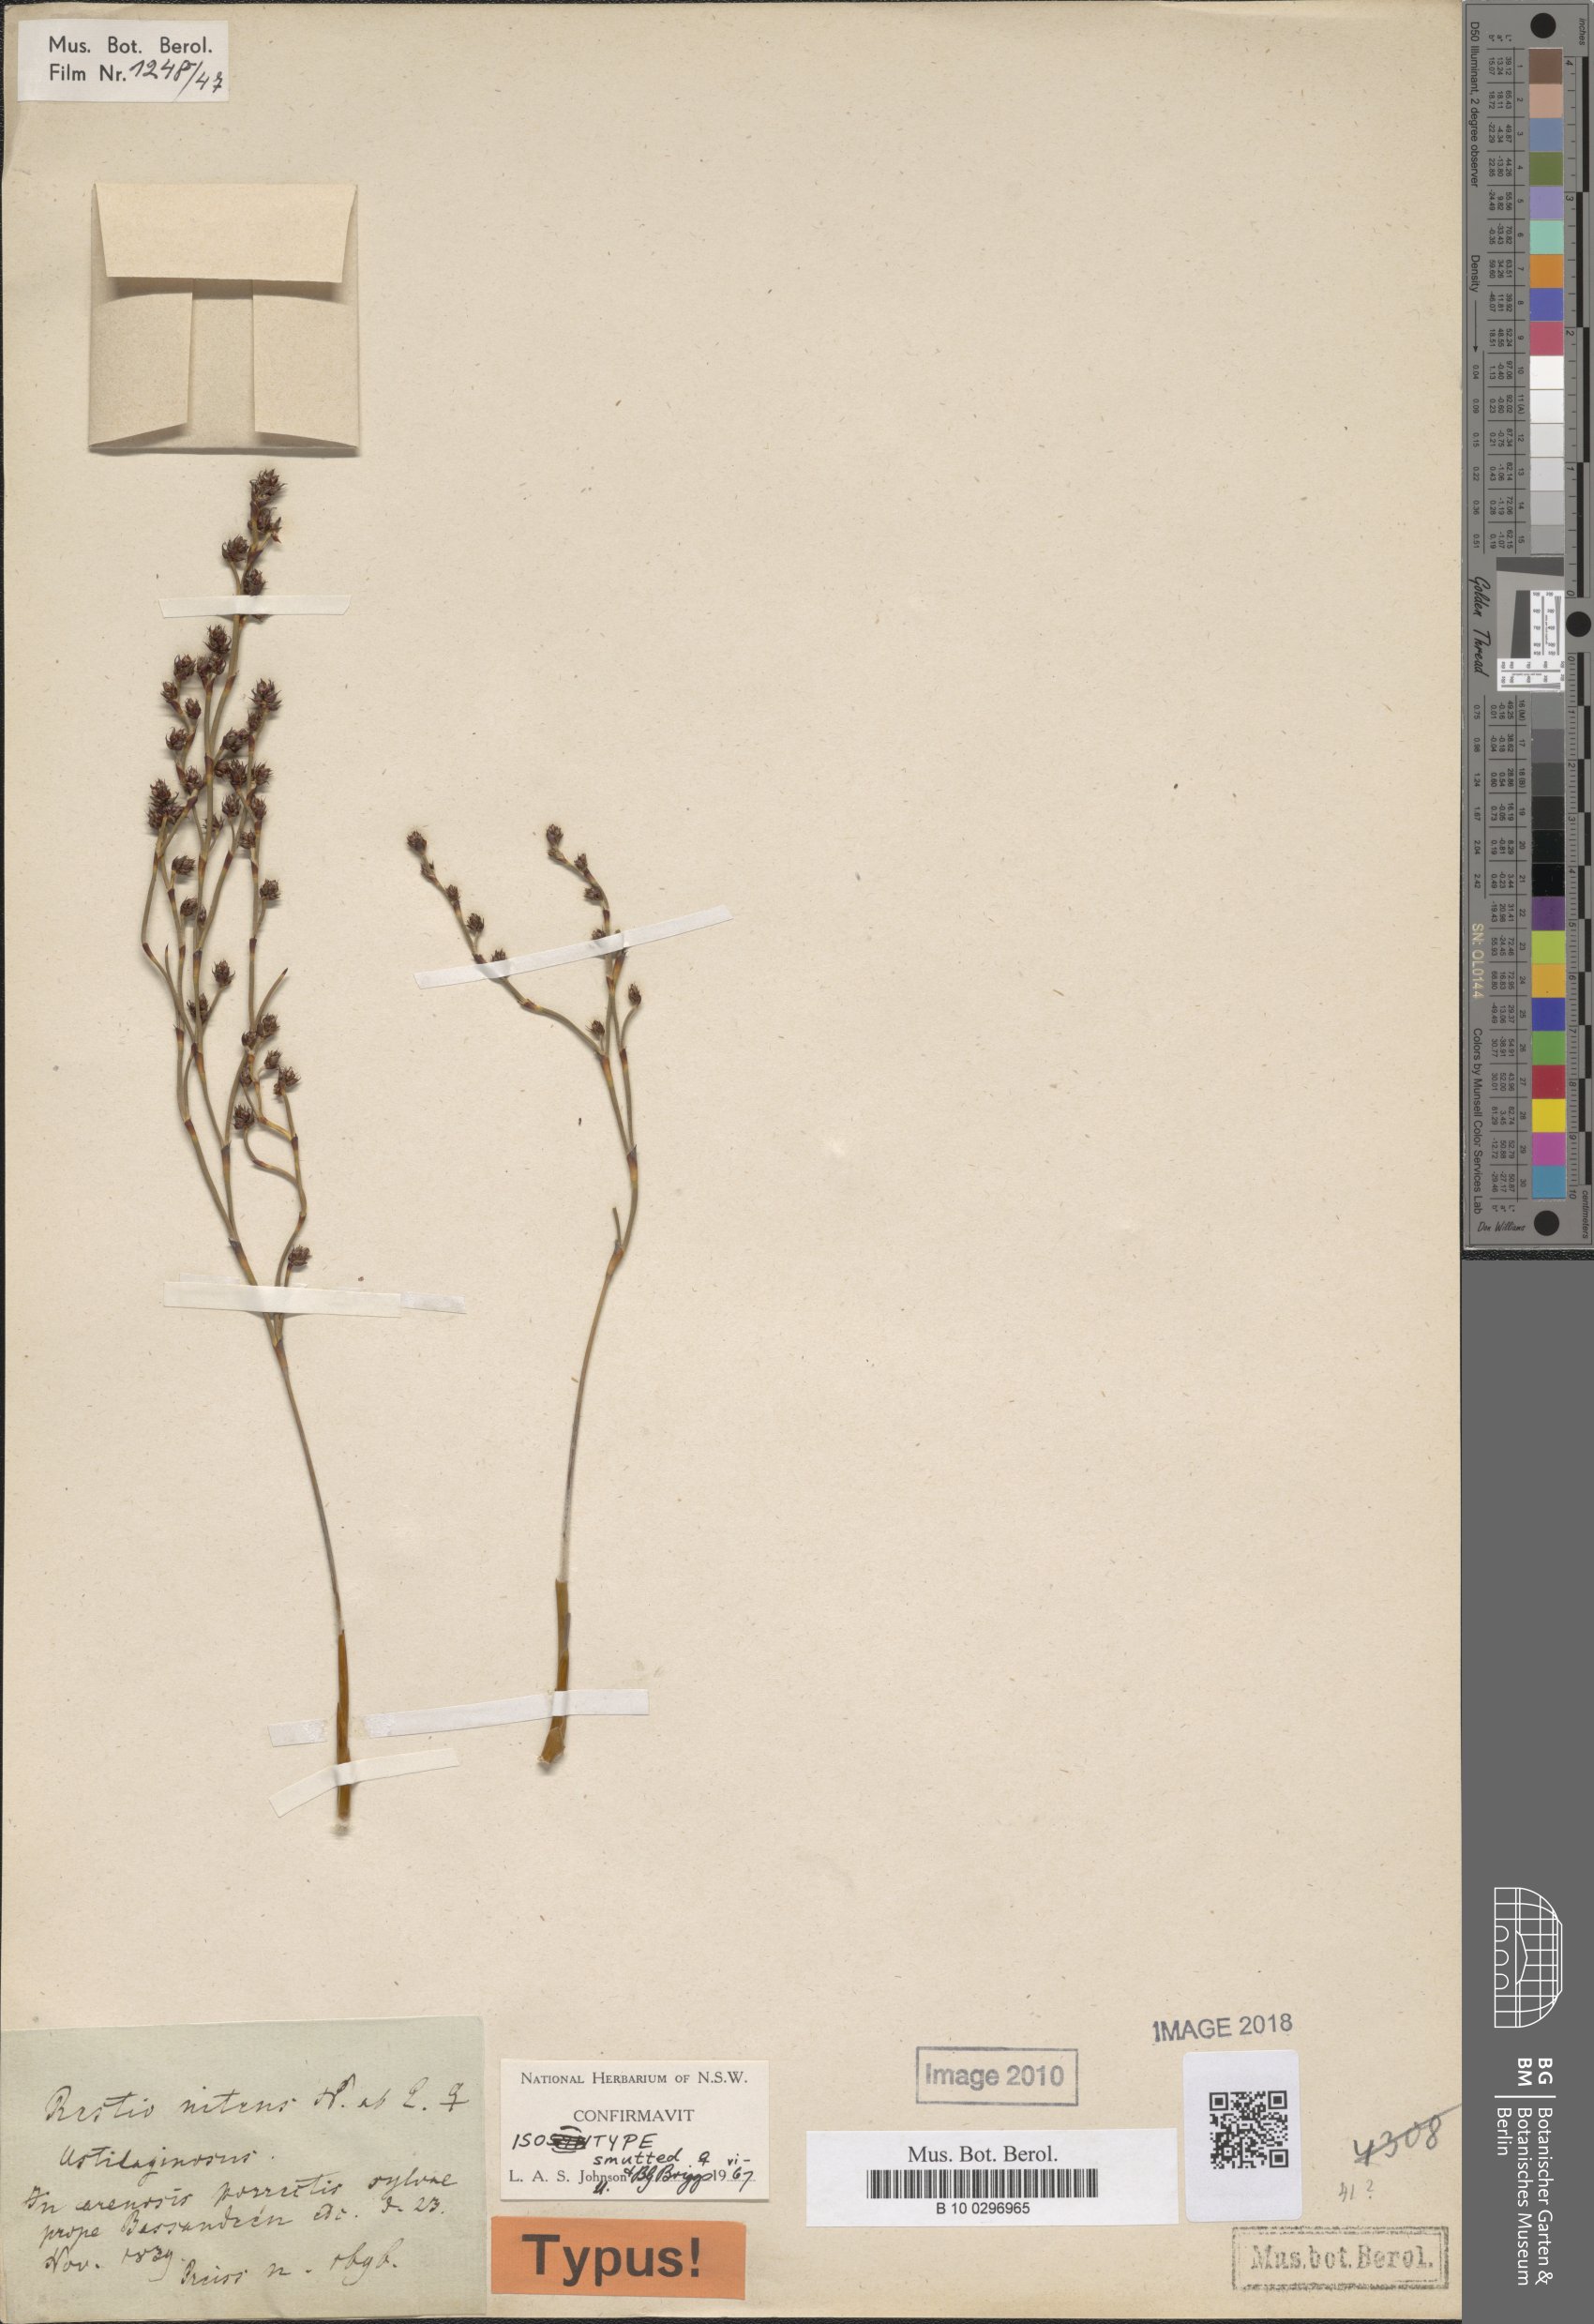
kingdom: Plantae
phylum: Tracheophyta
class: Liliopsida
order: Poales
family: Restionaceae
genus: Alexgeorgea
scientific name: Alexgeorgea nitens
